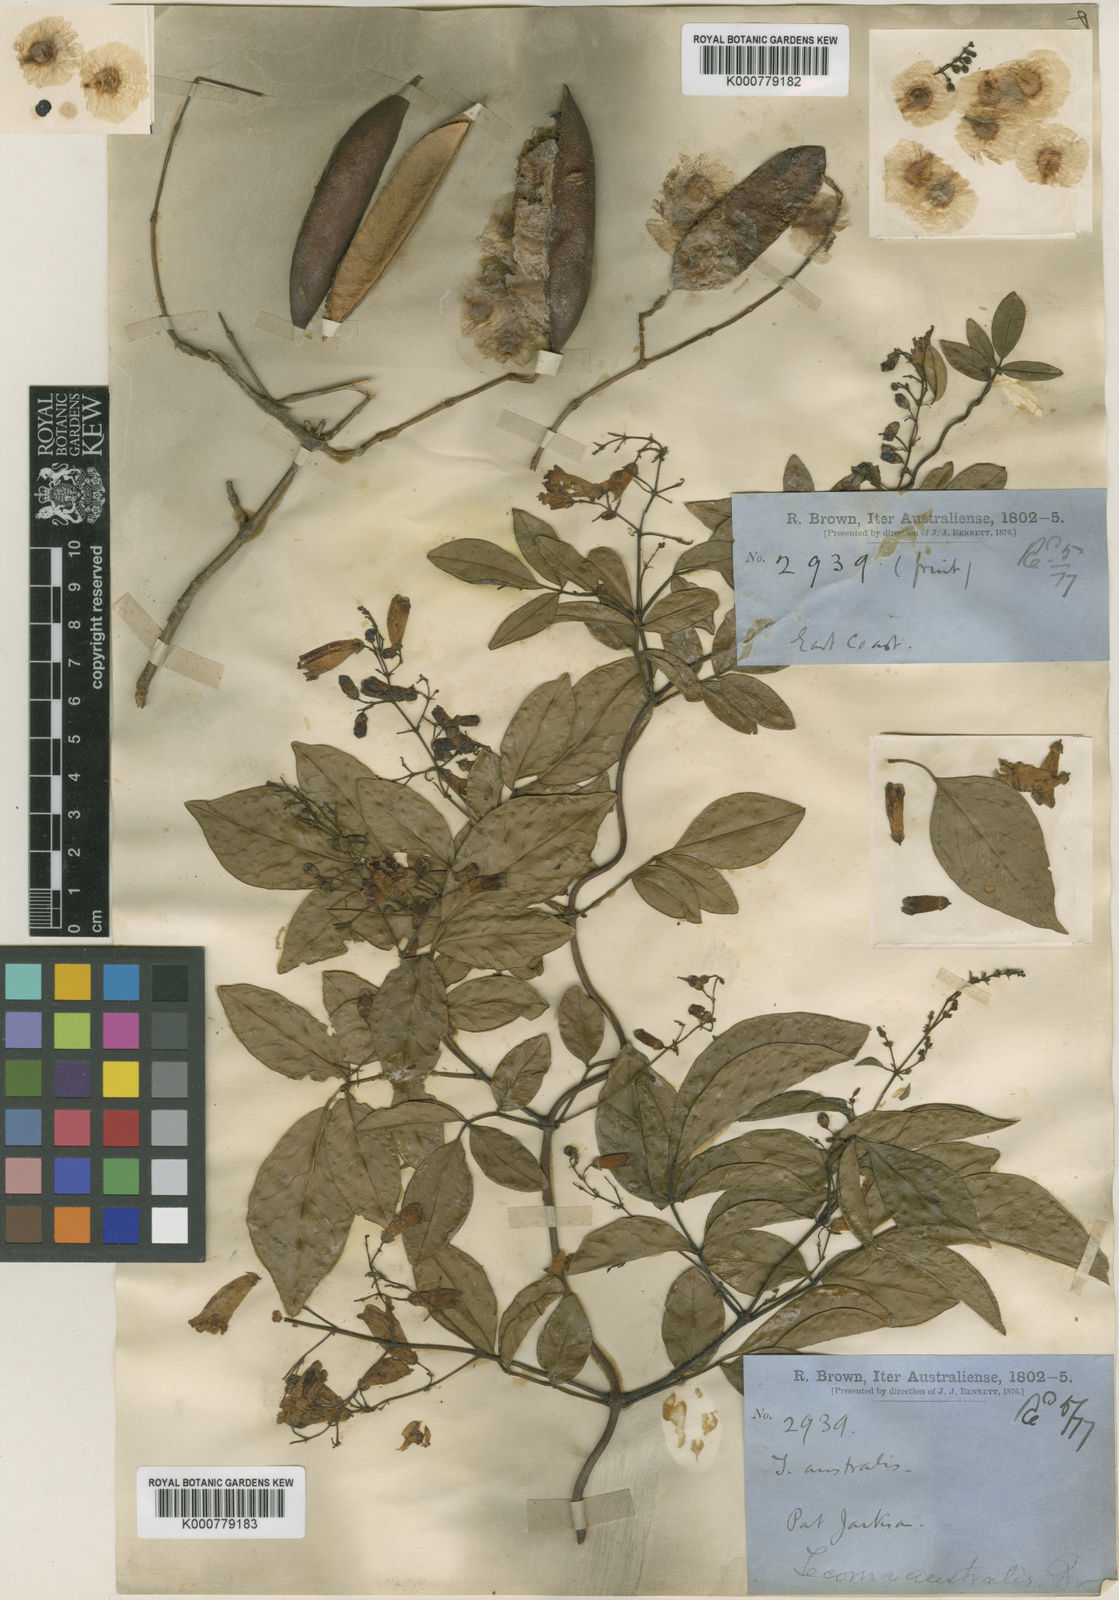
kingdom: Plantae
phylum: Tracheophyta
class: Magnoliopsida
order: Lamiales
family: Bignoniaceae
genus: Pandorea
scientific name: Pandorea pandorana
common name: Wonga-wonga-vine
